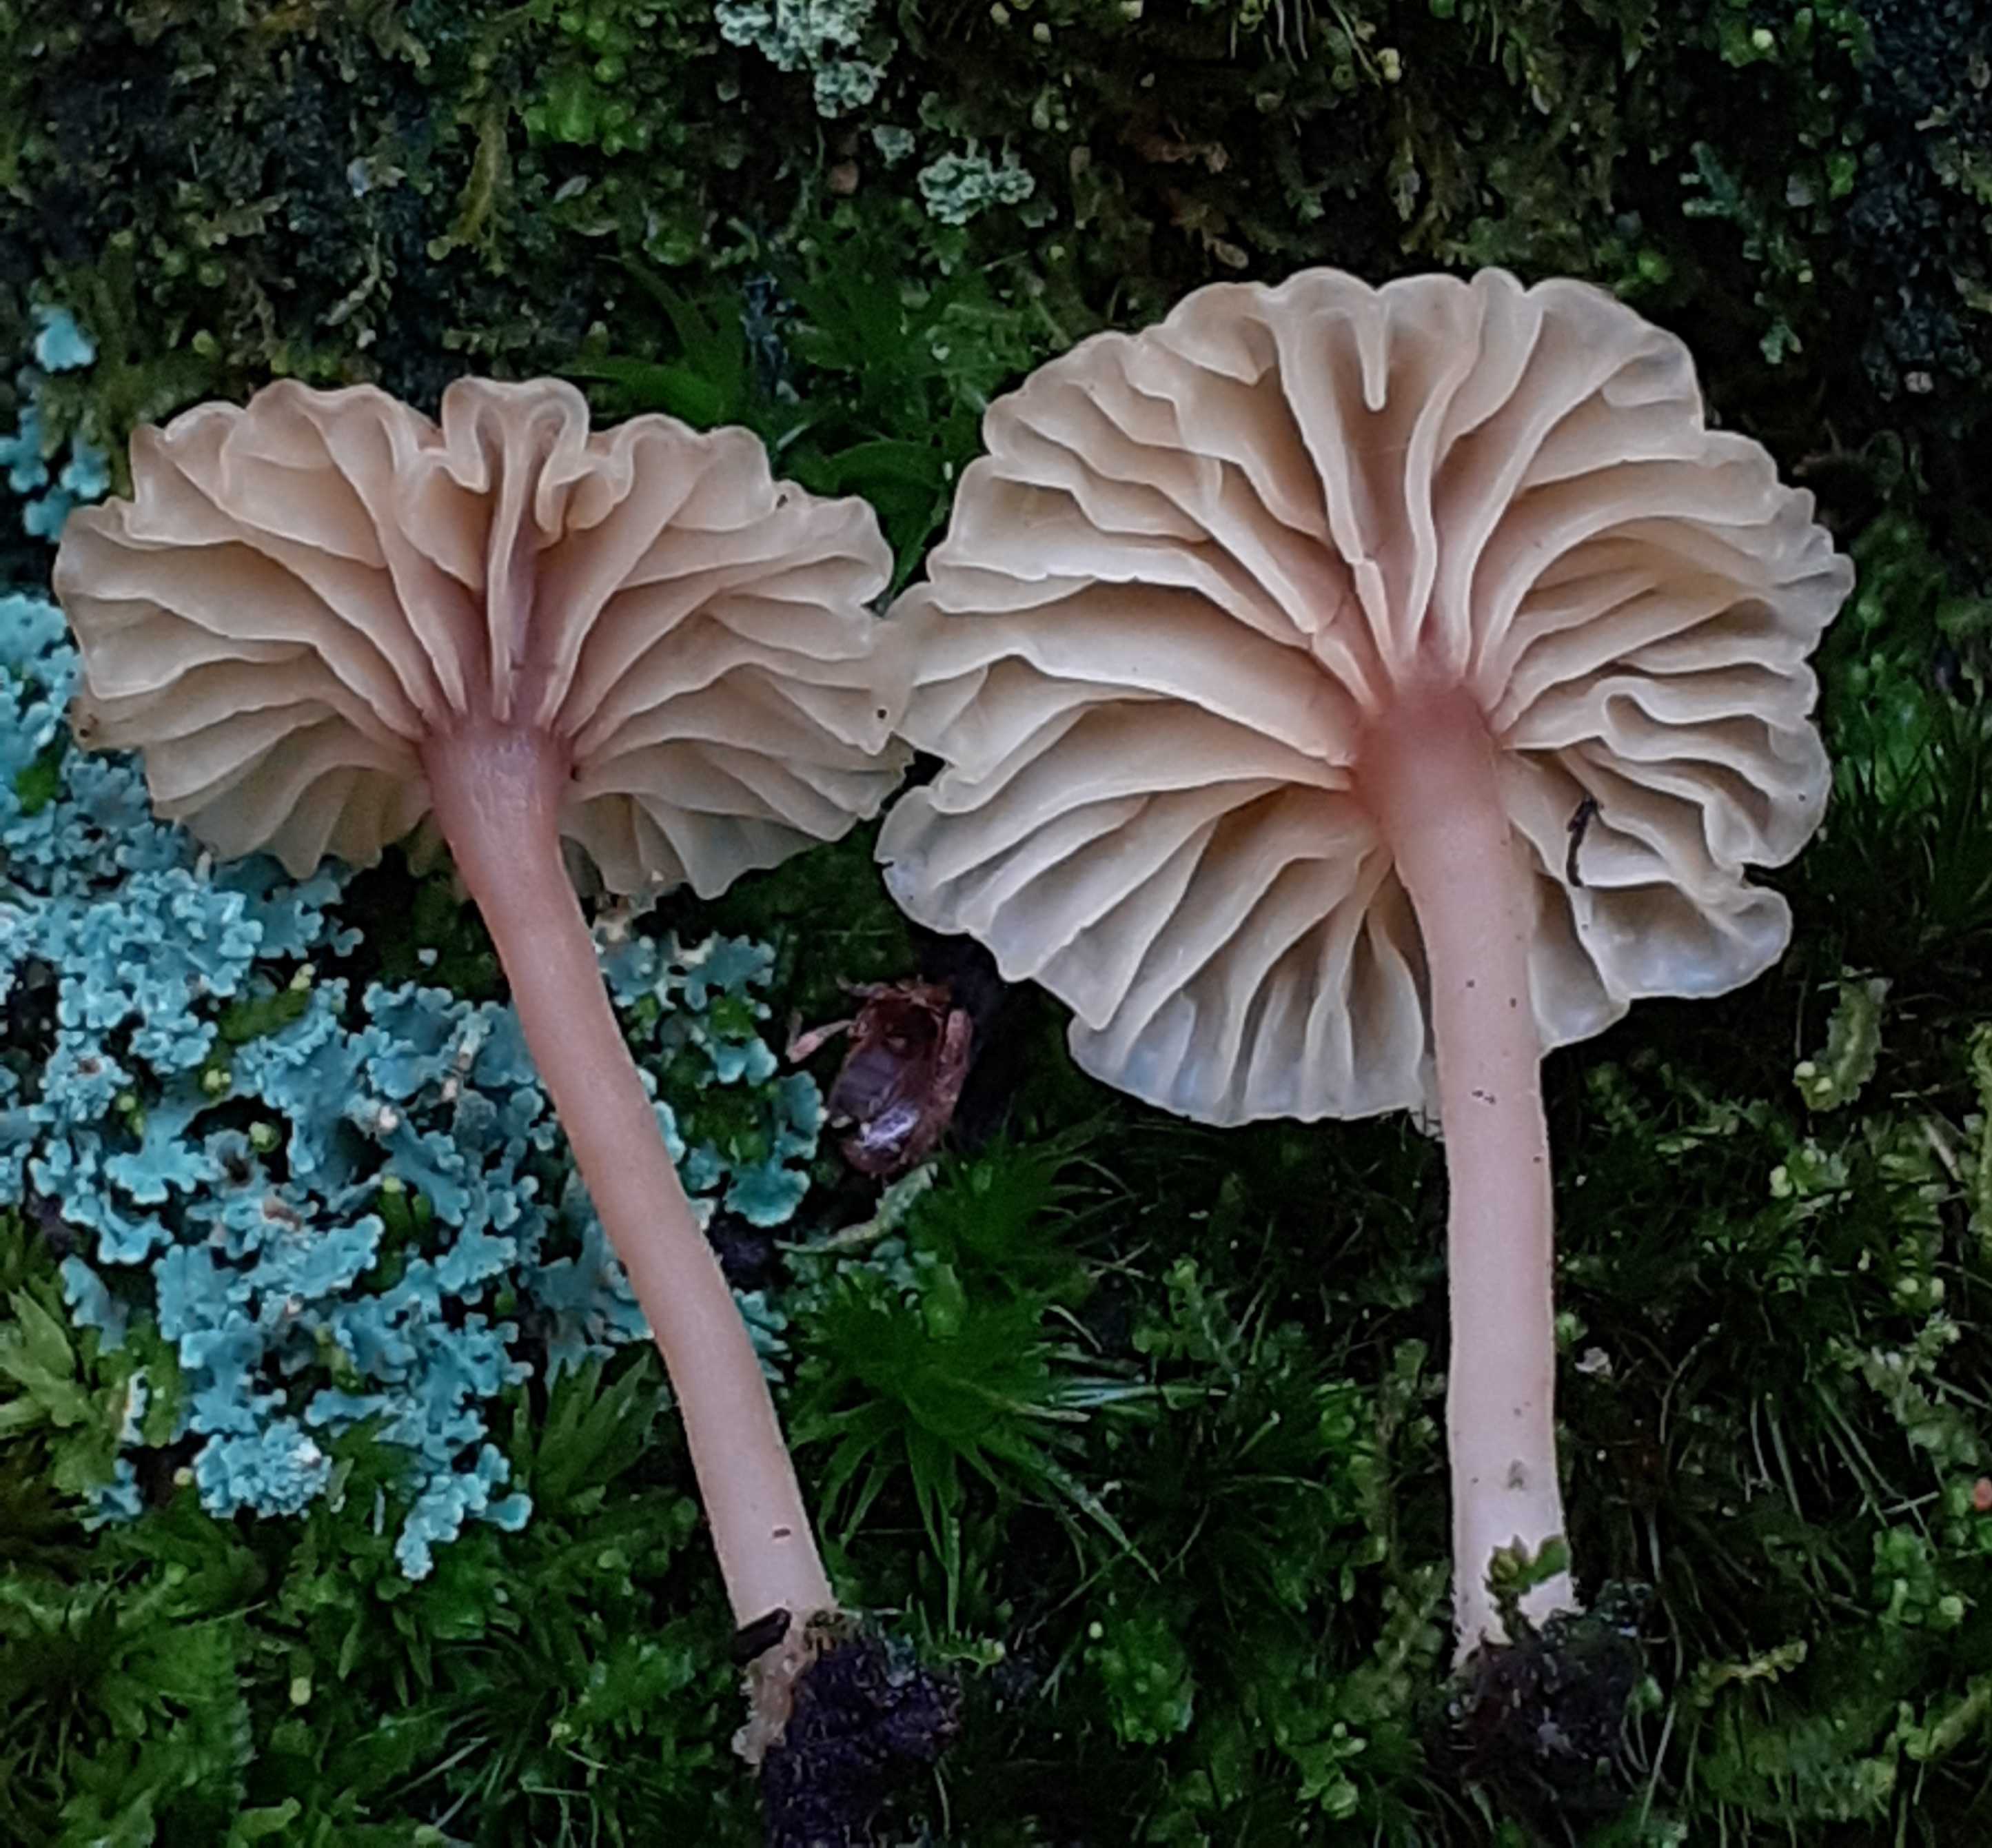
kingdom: Fungi
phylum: Basidiomycota
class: Agaricomycetes
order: Agaricales
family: Hygrophoraceae
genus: Lichenomphalia
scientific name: Lichenomphalia umbellifera
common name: tørve-lavhat
